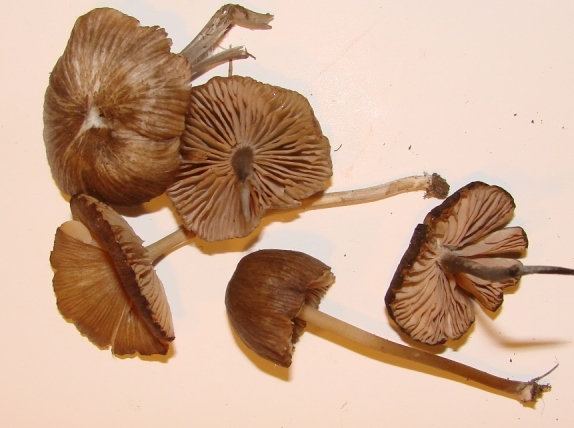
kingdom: Fungi
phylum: Basidiomycota
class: Agaricomycetes
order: Agaricales
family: Entolomataceae
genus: Entoloma
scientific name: Entoloma longistriatum
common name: gråfodet rødblad
